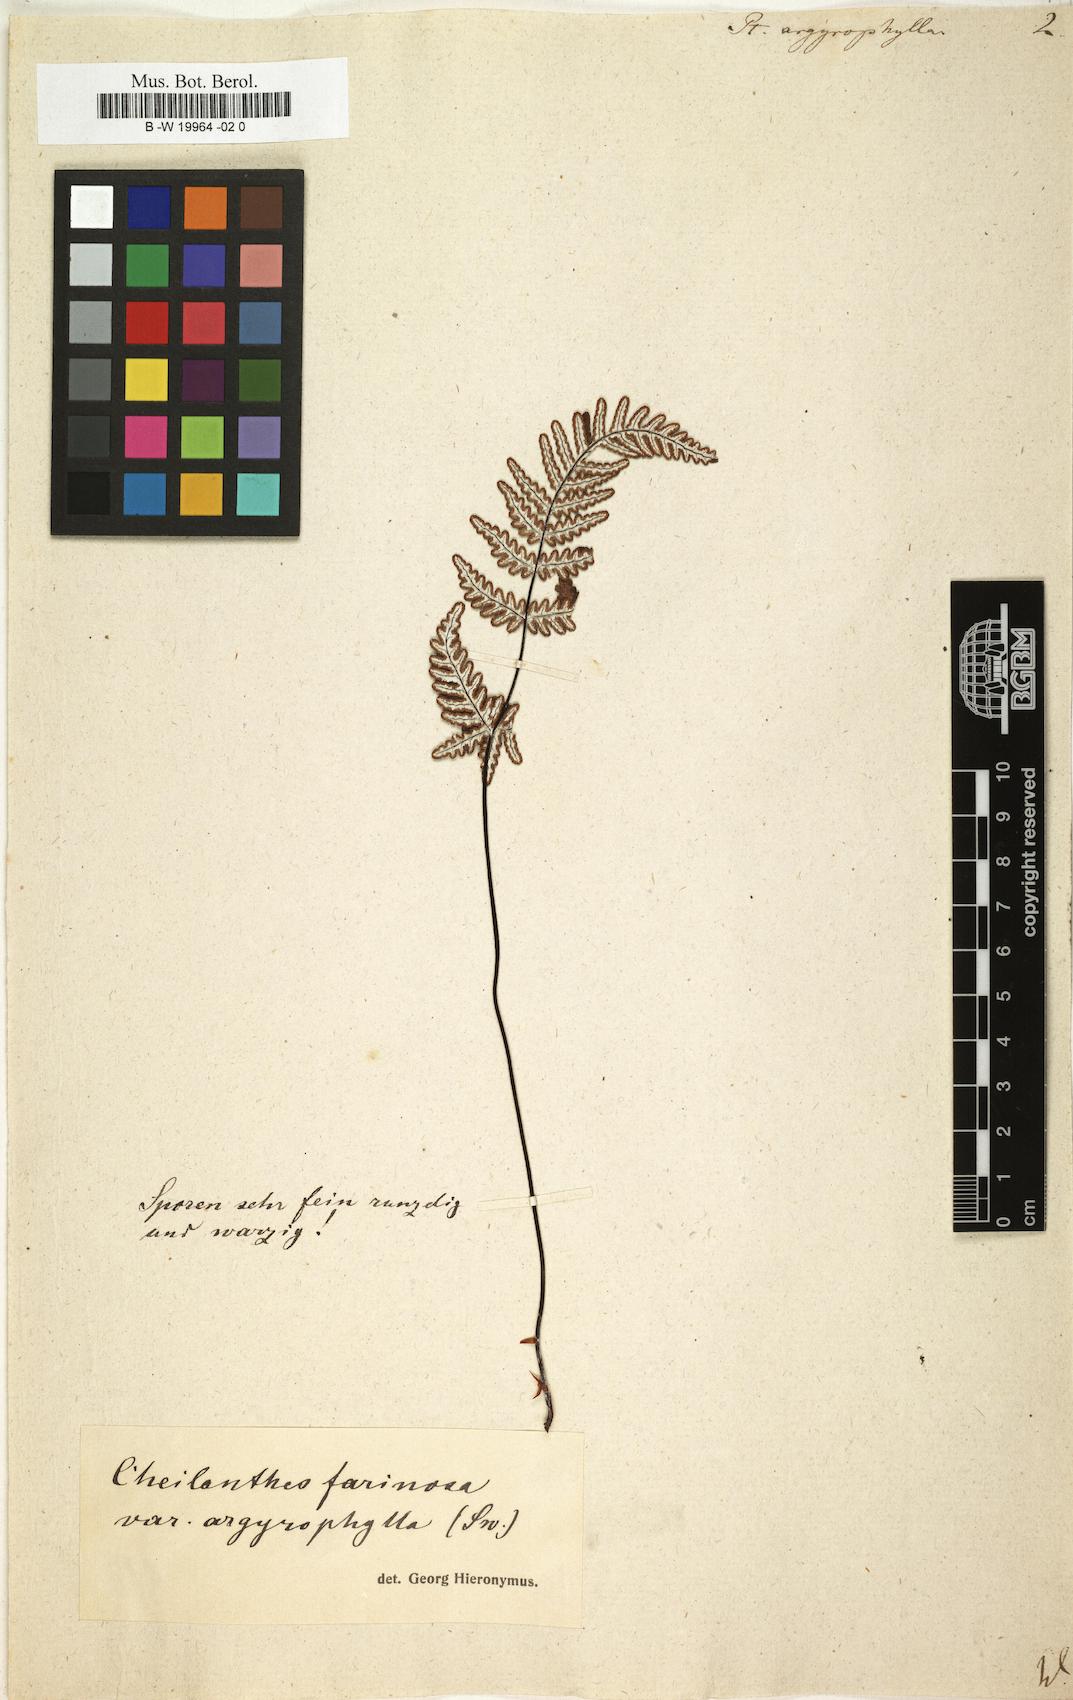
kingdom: Plantae
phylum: Tracheophyta
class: Polypodiopsida
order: Polypodiales
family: Pteridaceae
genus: Aleuritopteris
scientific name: Aleuritopteris farinosa
